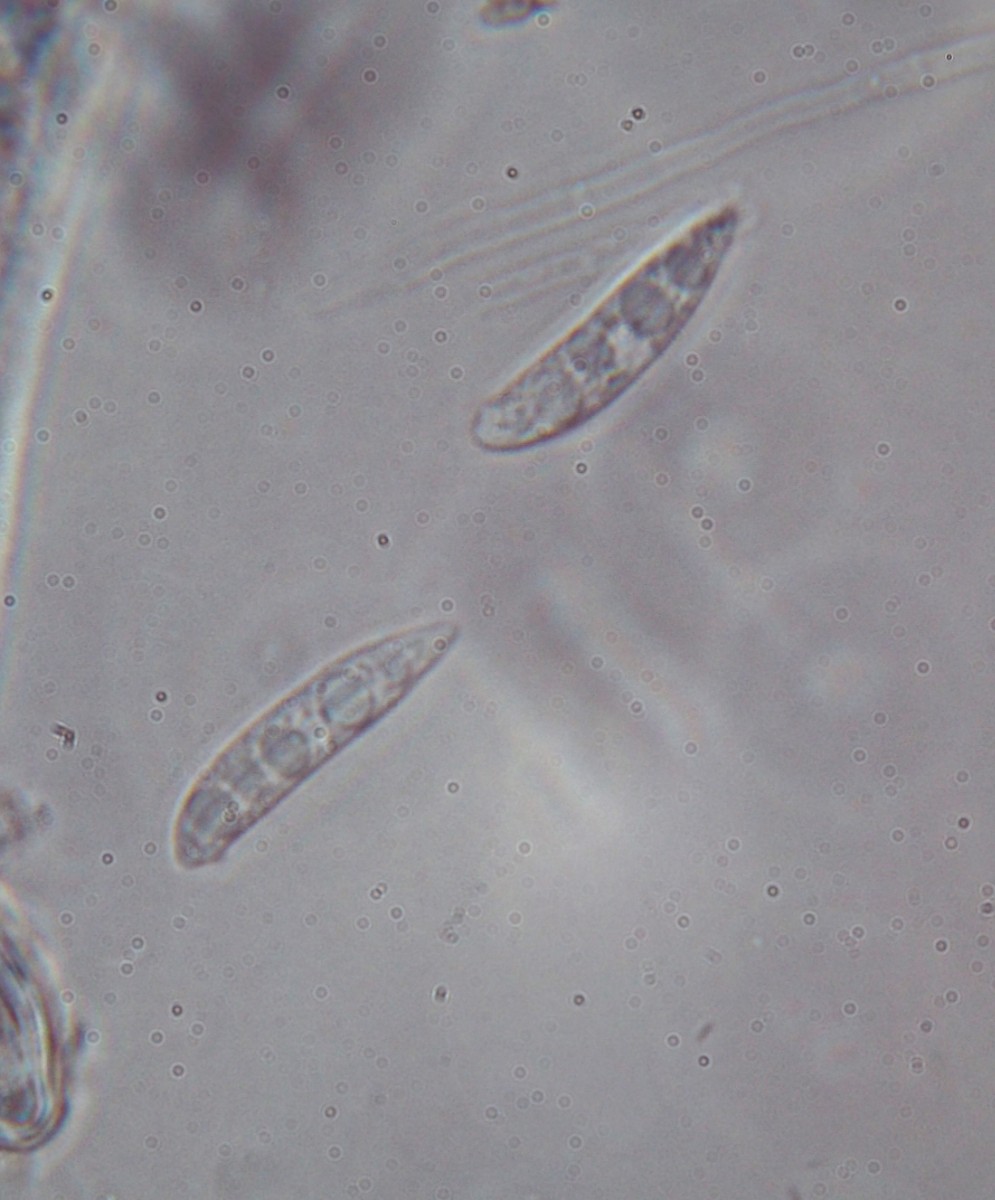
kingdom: Fungi
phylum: Ascomycota
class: Leotiomycetes
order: Helotiales
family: Helotiaceae
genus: Hymenoscyphus
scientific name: Hymenoscyphus scutula
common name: almindelig stilkskive
